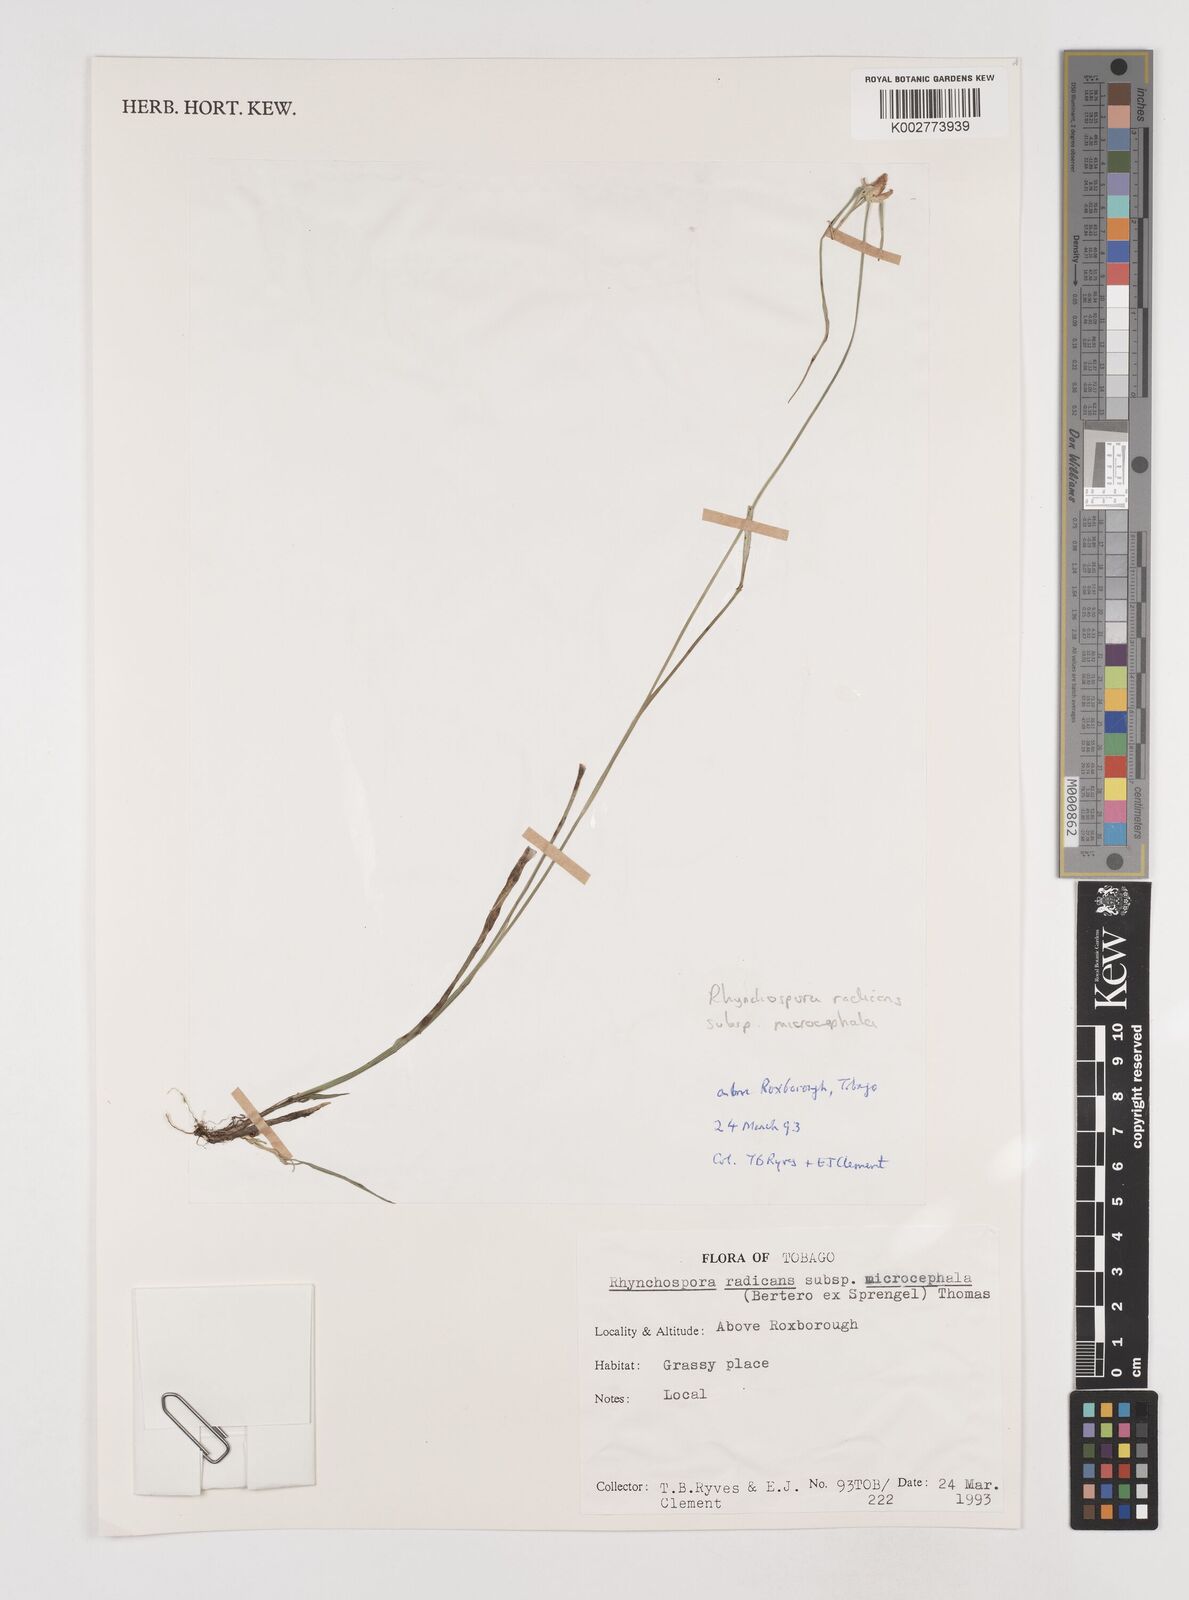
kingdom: Plantae
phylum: Tracheophyta
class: Liliopsida
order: Poales
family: Cyperaceae
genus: Rhynchospora
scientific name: Rhynchospora radicans
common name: Tropical whitetop
